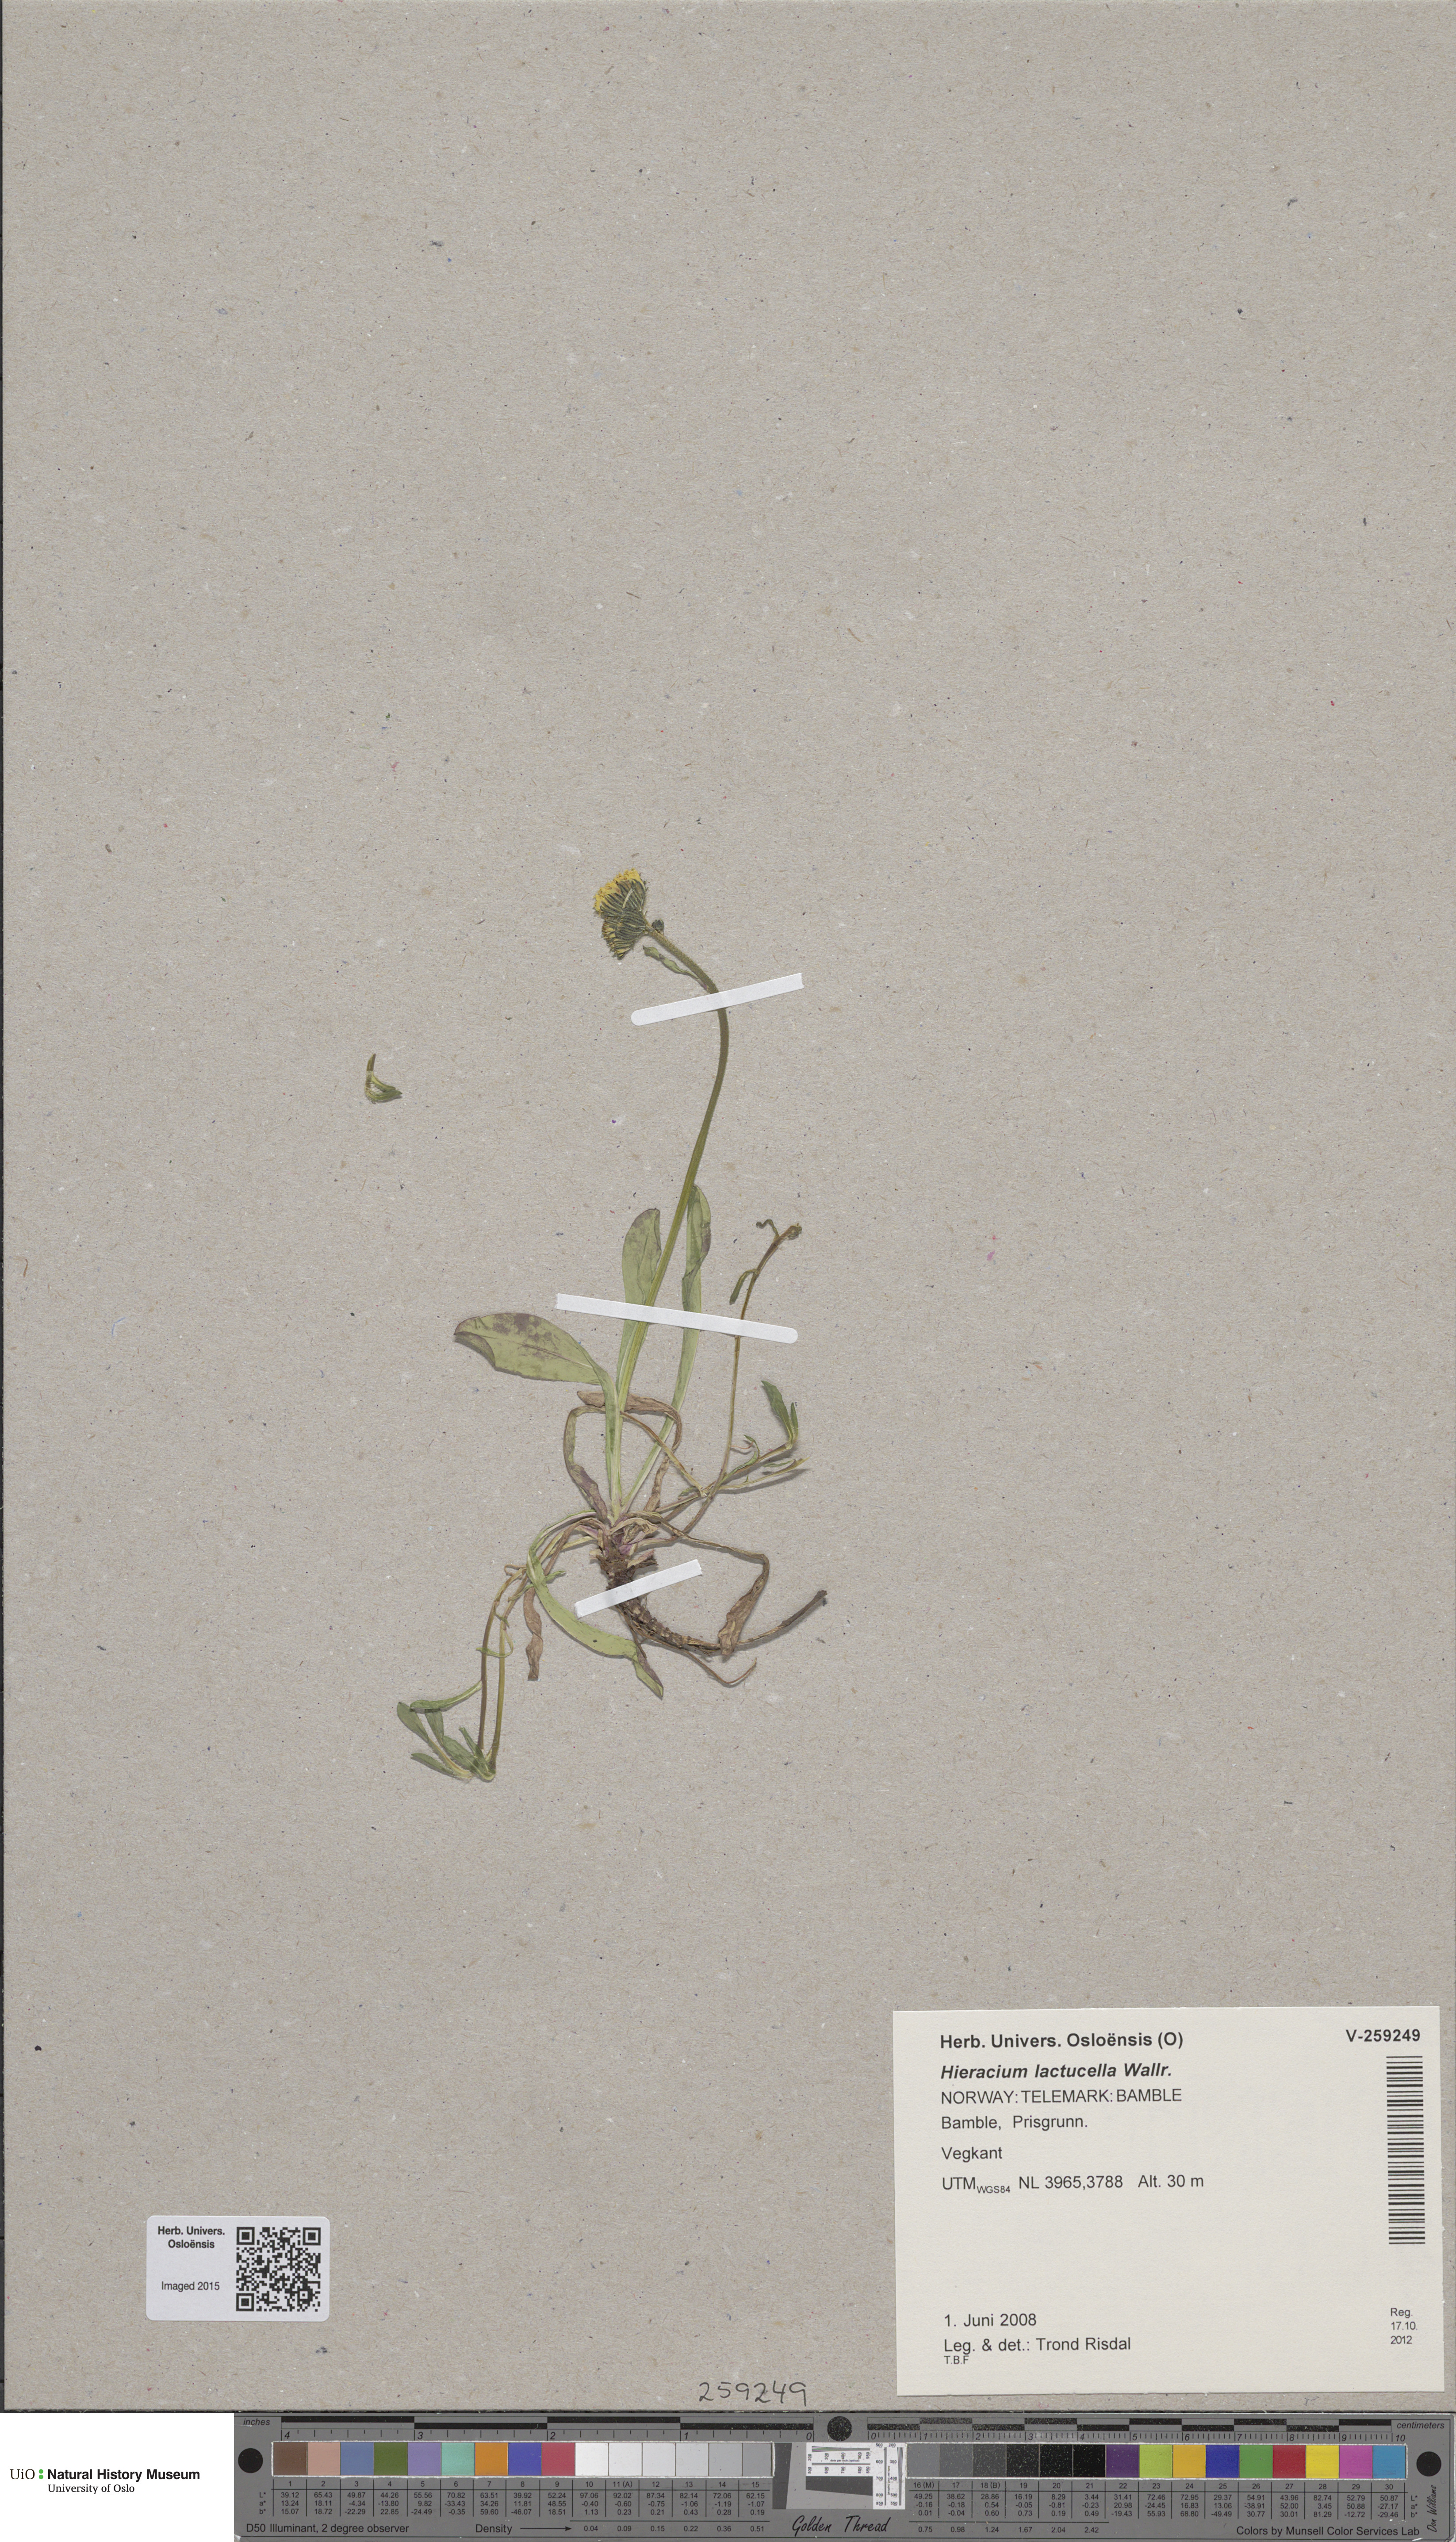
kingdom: Plantae
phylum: Tracheophyta
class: Magnoliopsida
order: Asterales
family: Asteraceae
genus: Pilosella
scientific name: Pilosella lactucella
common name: Glaucous fox-and-cubs
